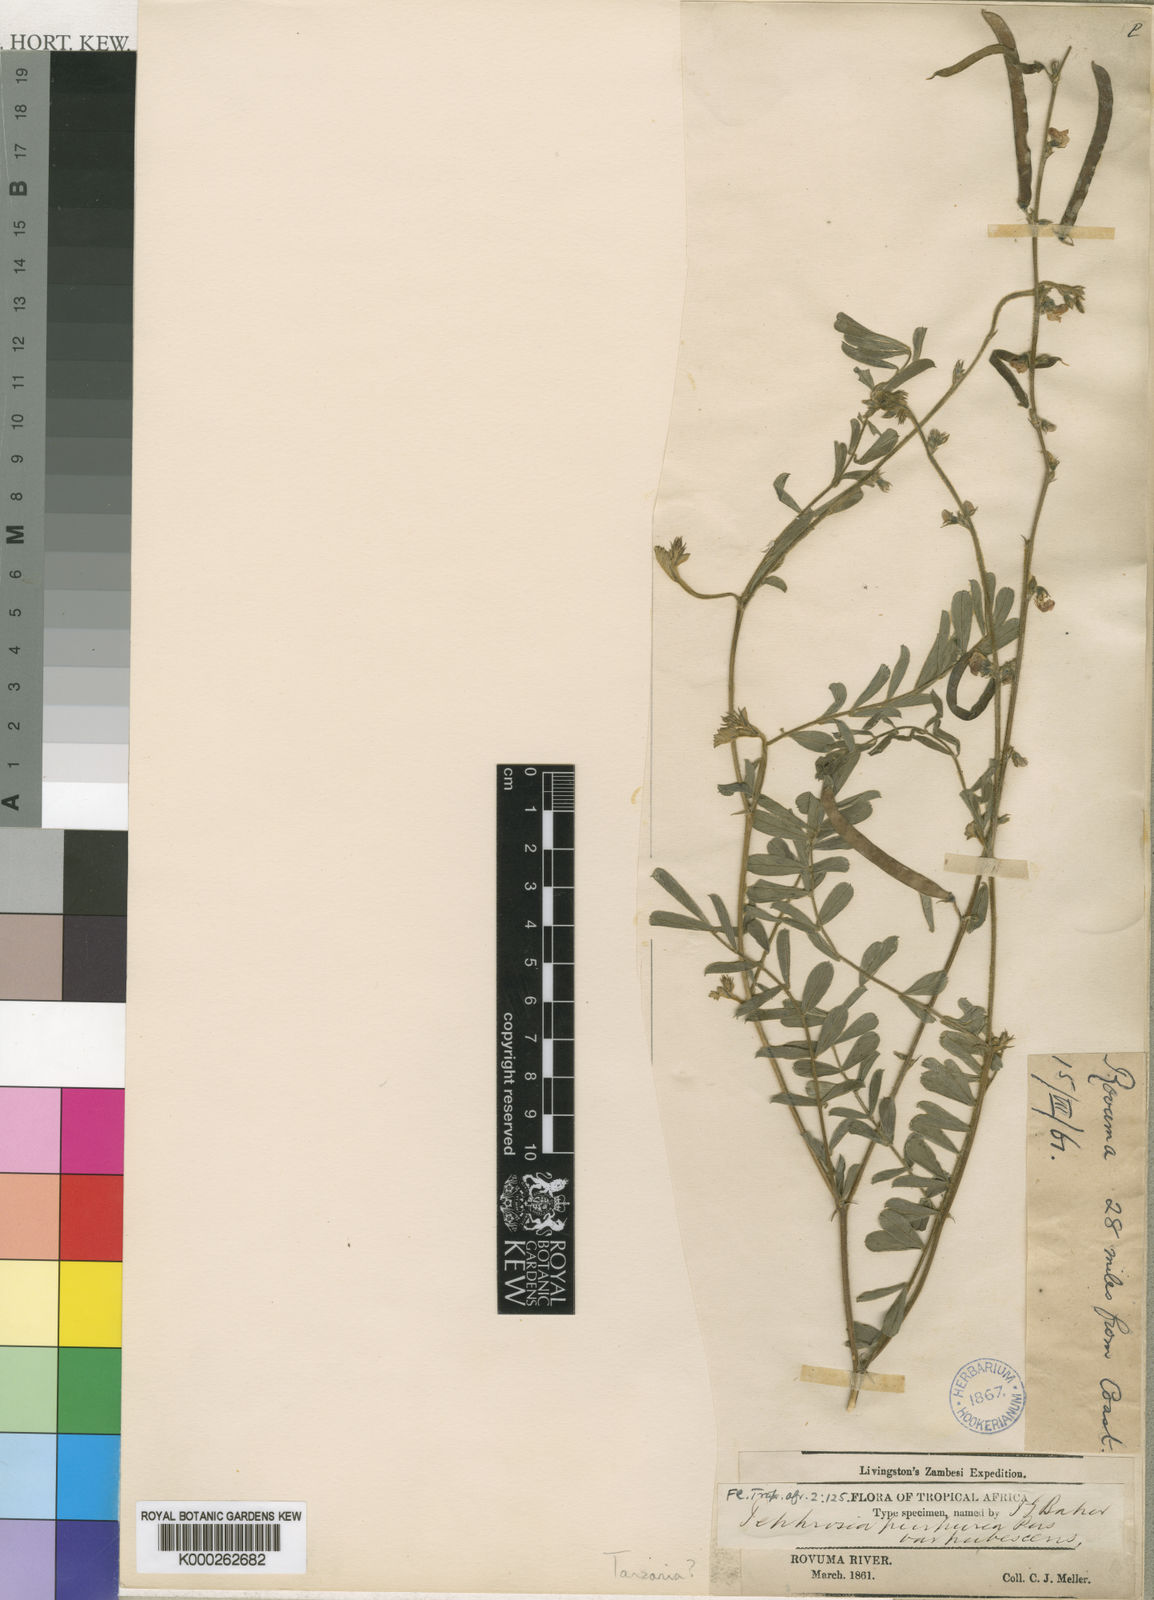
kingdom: Plantae
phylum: Tracheophyta
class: Magnoliopsida
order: Fabales
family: Fabaceae
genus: Tephrosia
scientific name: Tephrosia purpurea
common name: Fishpoison
